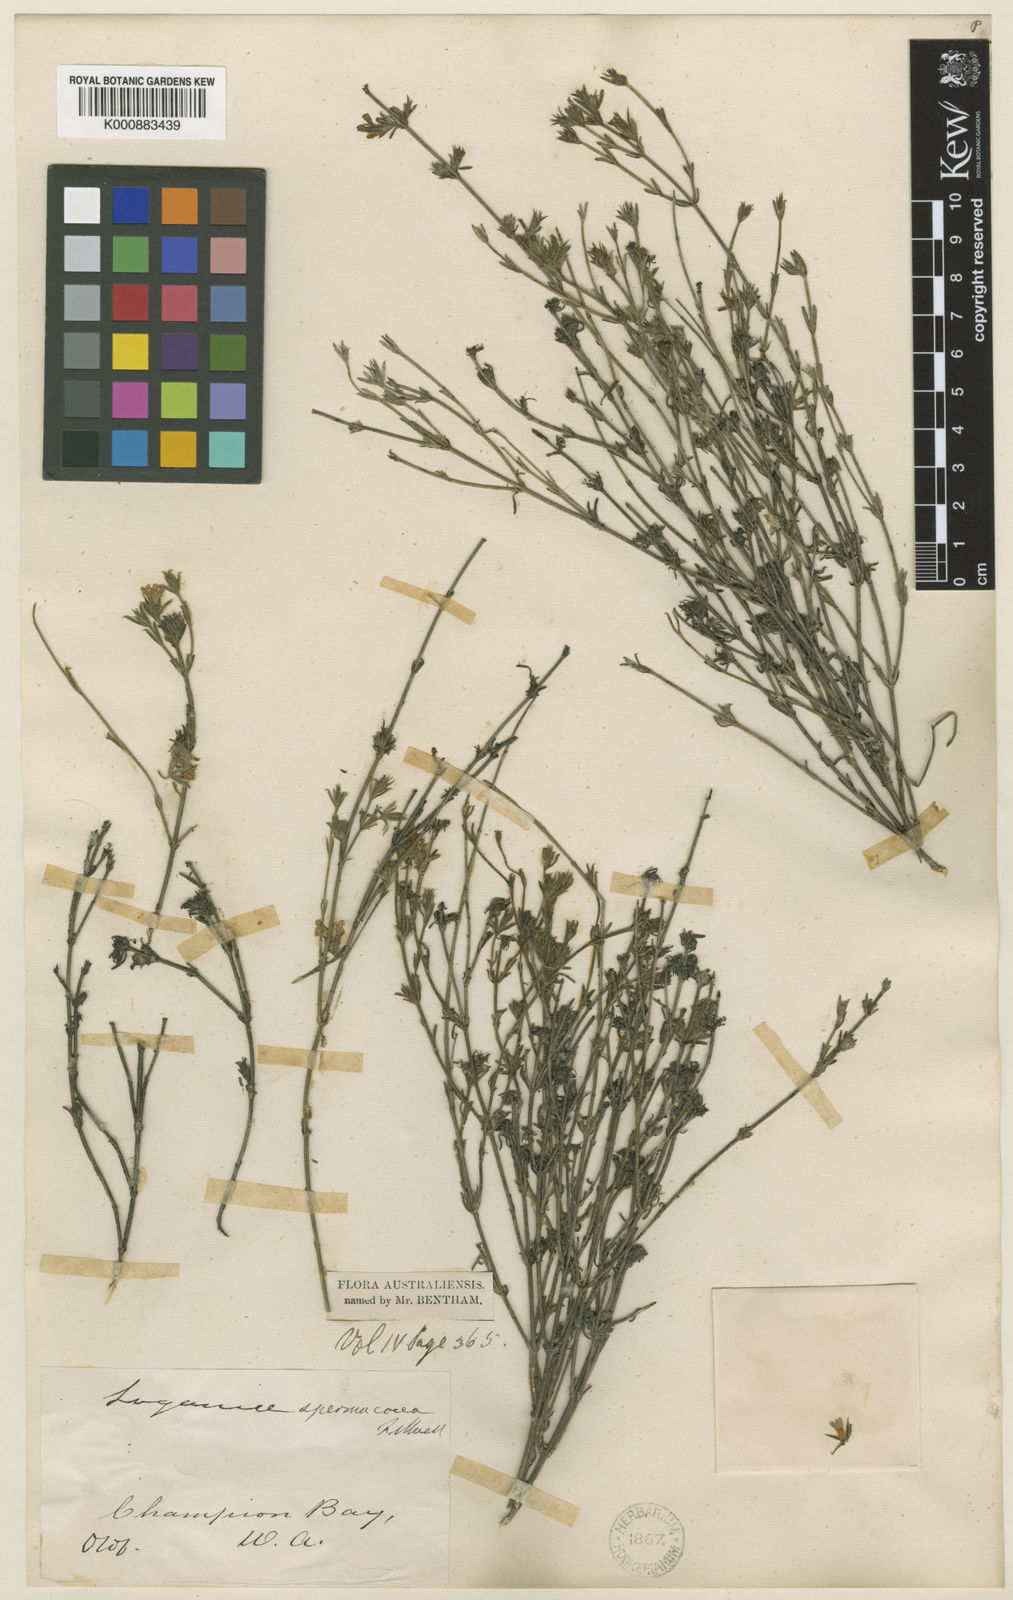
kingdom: Plantae
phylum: Tracheophyta
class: Magnoliopsida
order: Gentianales
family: Loganiaceae
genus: Orianthera
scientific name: Orianthera spermacocea
